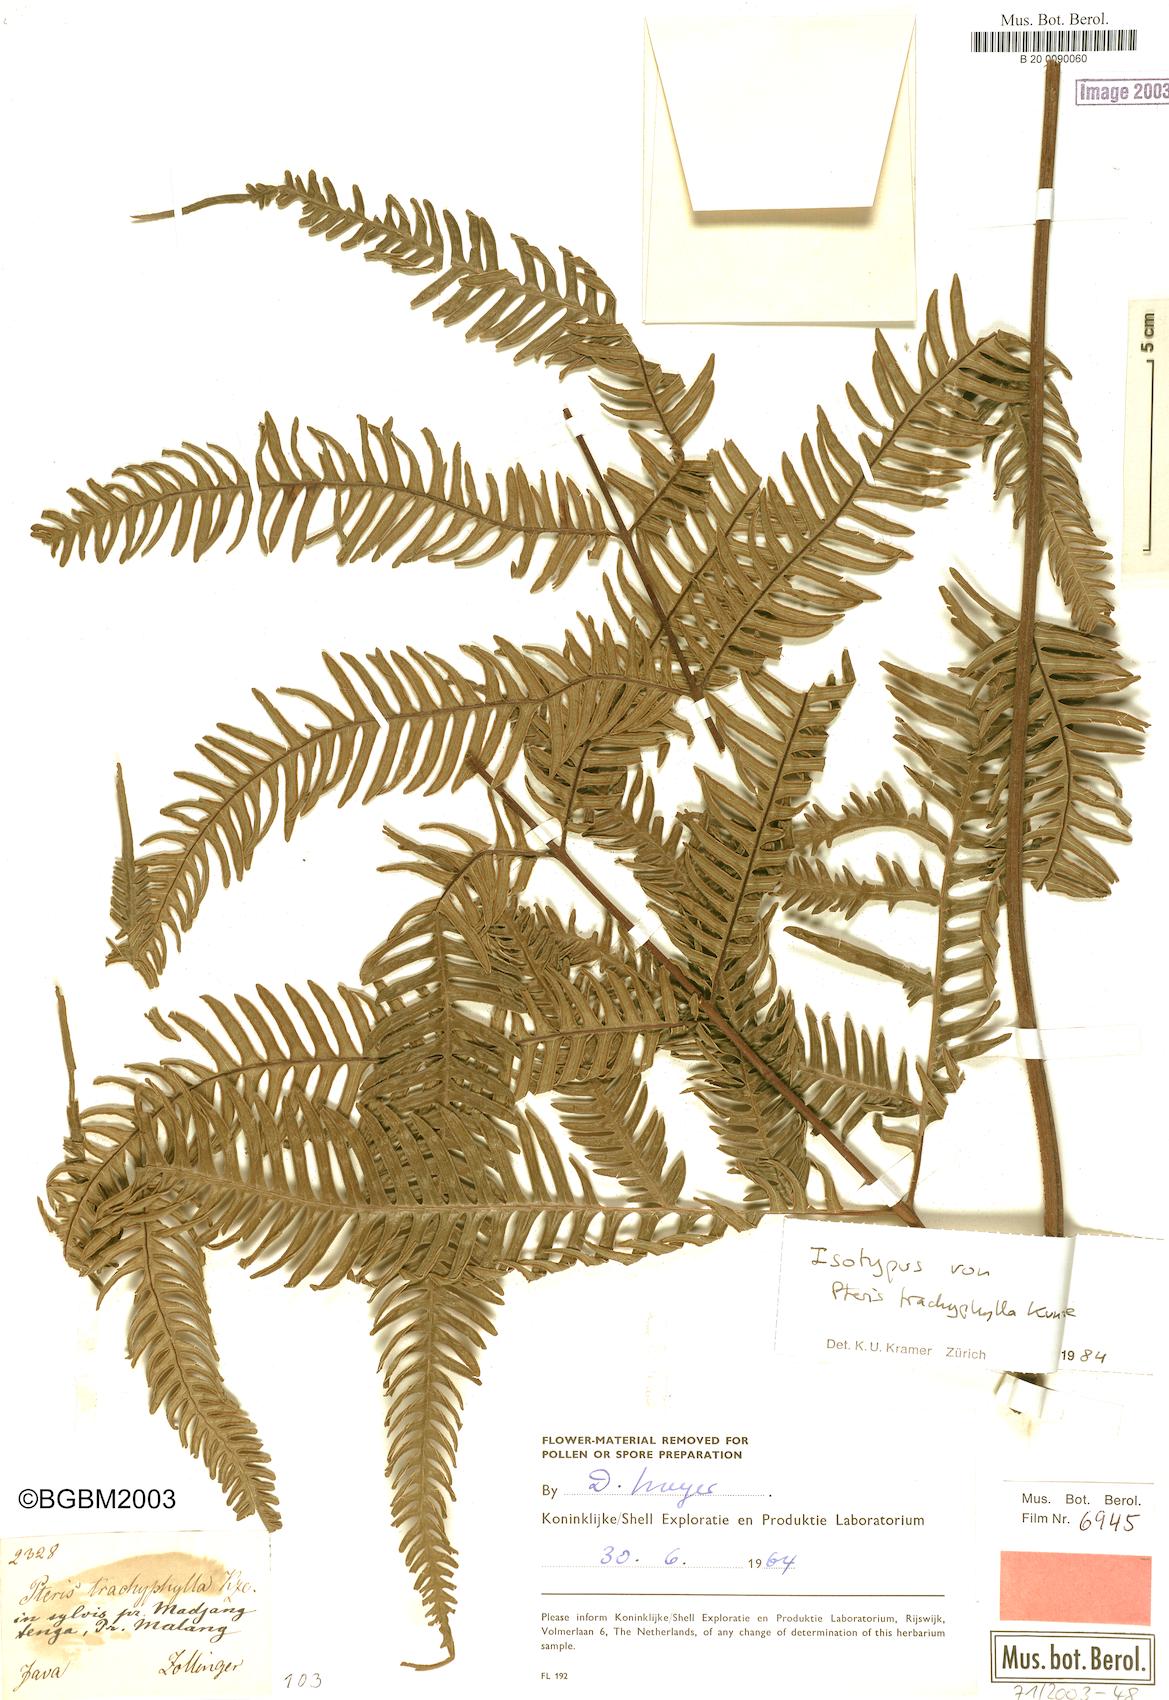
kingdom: Plantae
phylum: Tracheophyta
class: Polypodiopsida
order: Polypodiales
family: Pteridaceae
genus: Pteris
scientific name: Pteris quadriaurita
